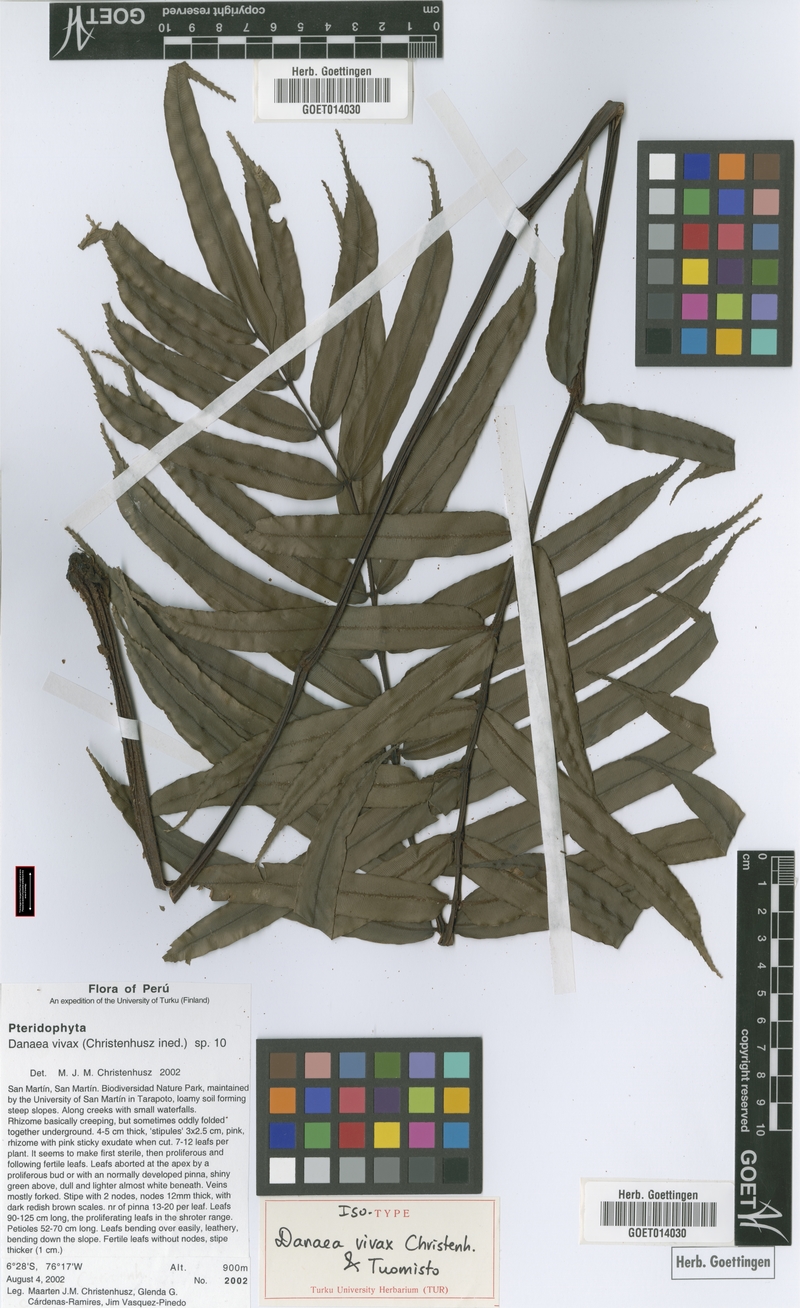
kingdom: Plantae
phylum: Tracheophyta
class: Polypodiopsida
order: Marattiales
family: Marattiaceae
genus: Danaea
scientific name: Danaea vivax
